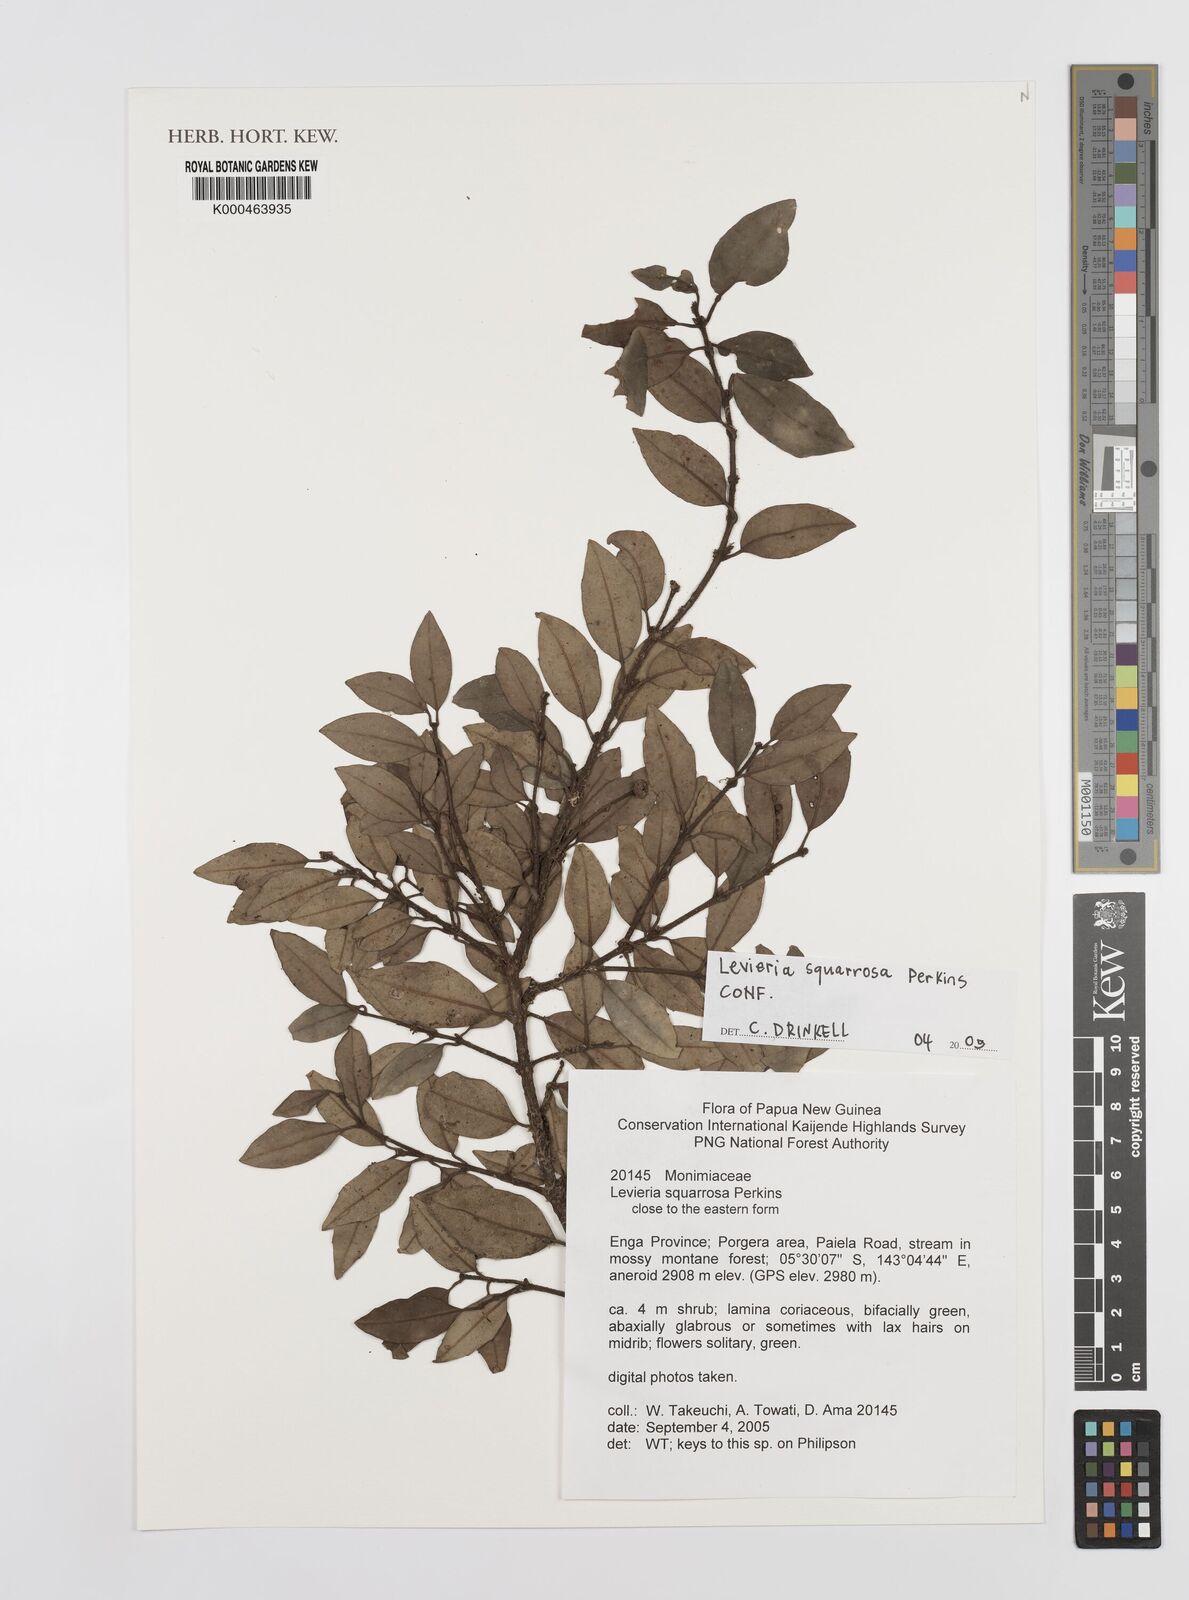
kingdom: Plantae
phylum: Tracheophyta
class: Magnoliopsida
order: Laurales
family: Monimiaceae
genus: Levieria
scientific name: Levieria squarrosa
